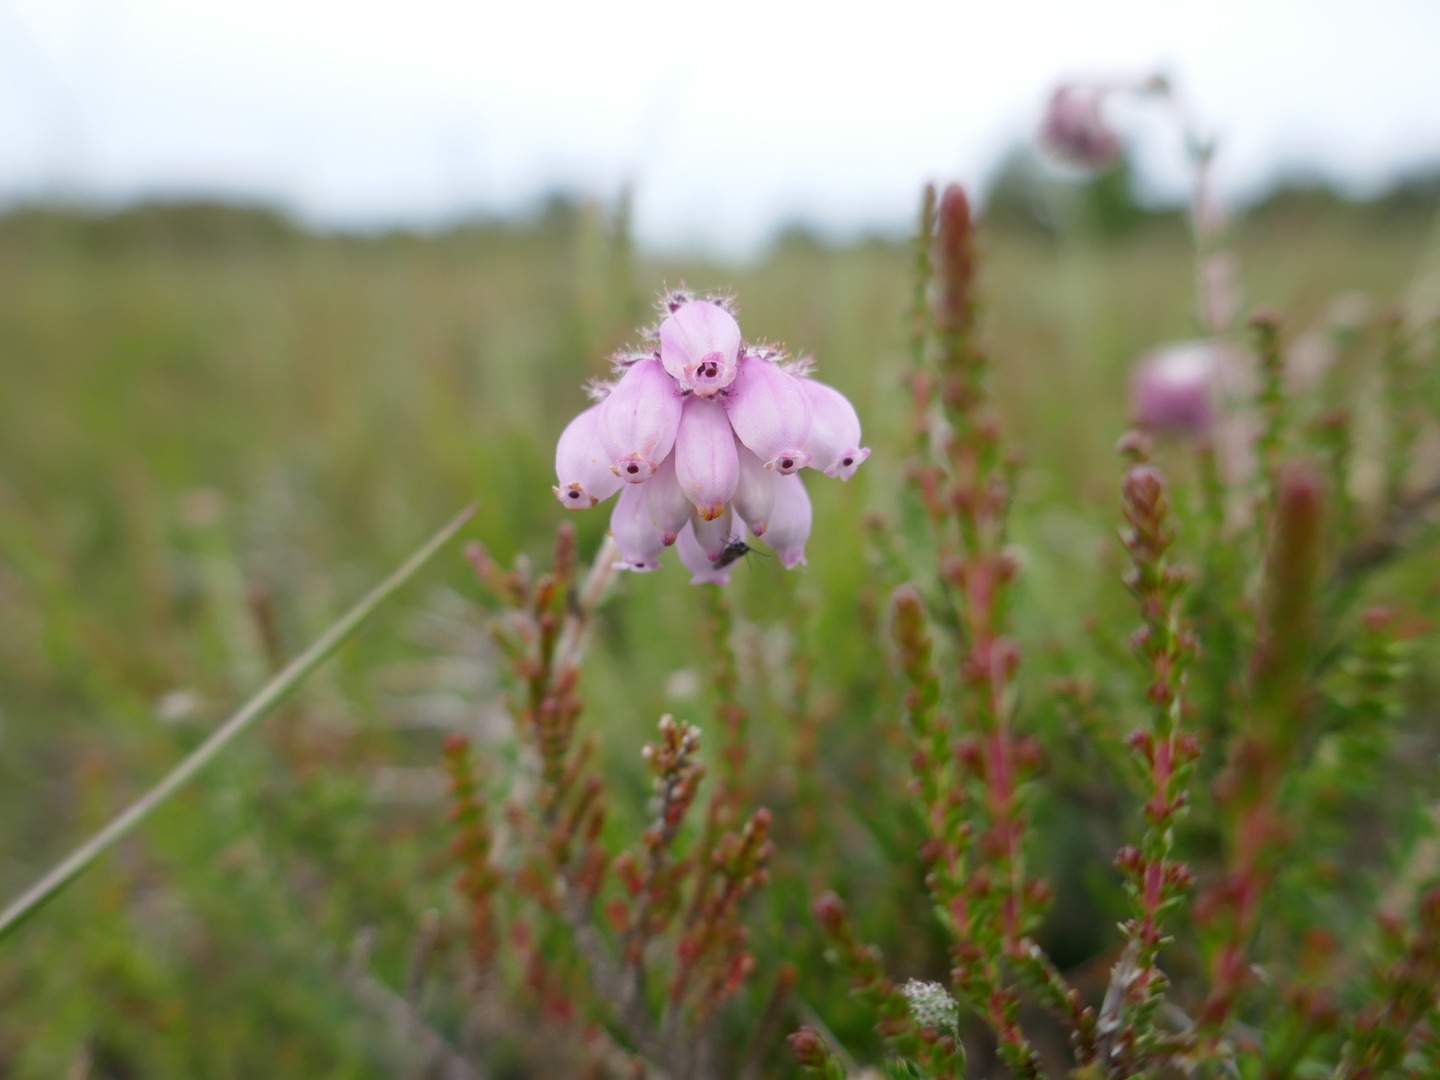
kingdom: Plantae
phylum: Tracheophyta
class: Magnoliopsida
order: Ericales
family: Ericaceae
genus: Erica
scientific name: Erica tetralix
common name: Klokkelyng
